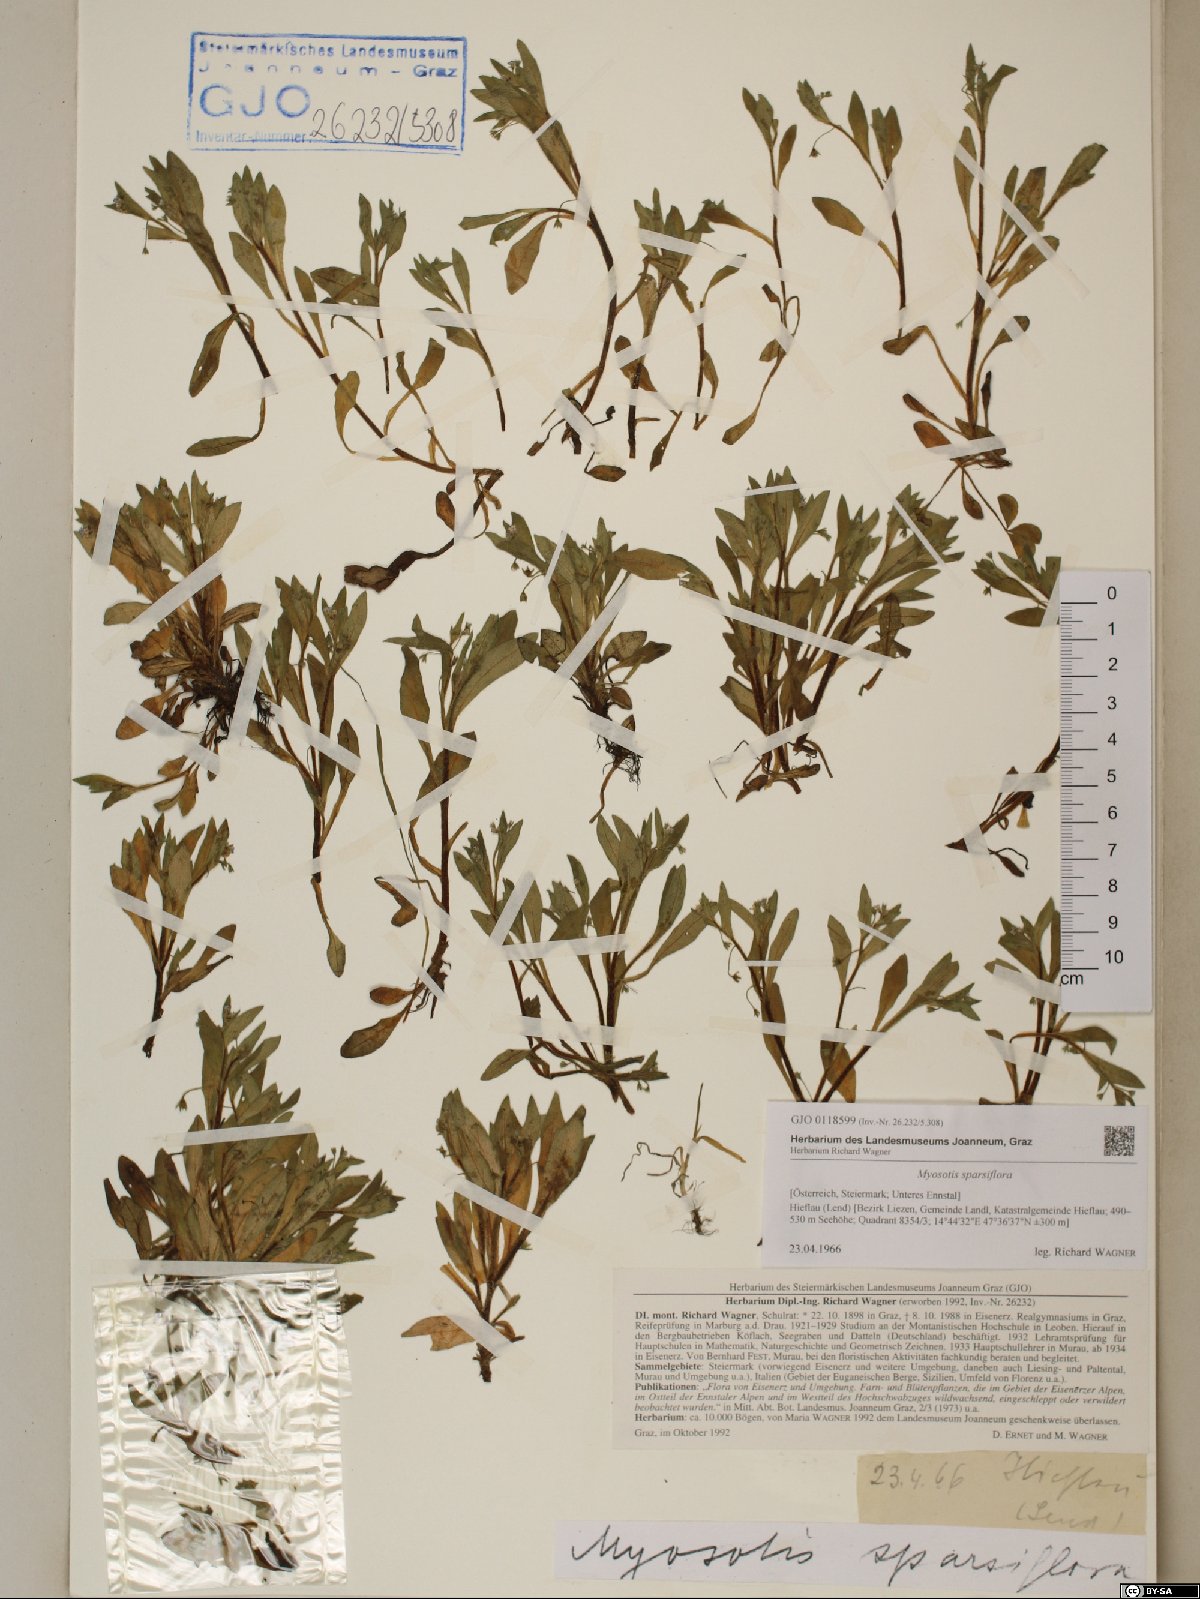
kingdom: Plantae
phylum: Tracheophyta
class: Magnoliopsida
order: Boraginales
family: Boraginaceae
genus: Myosotis
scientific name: Myosotis sparsiflora
